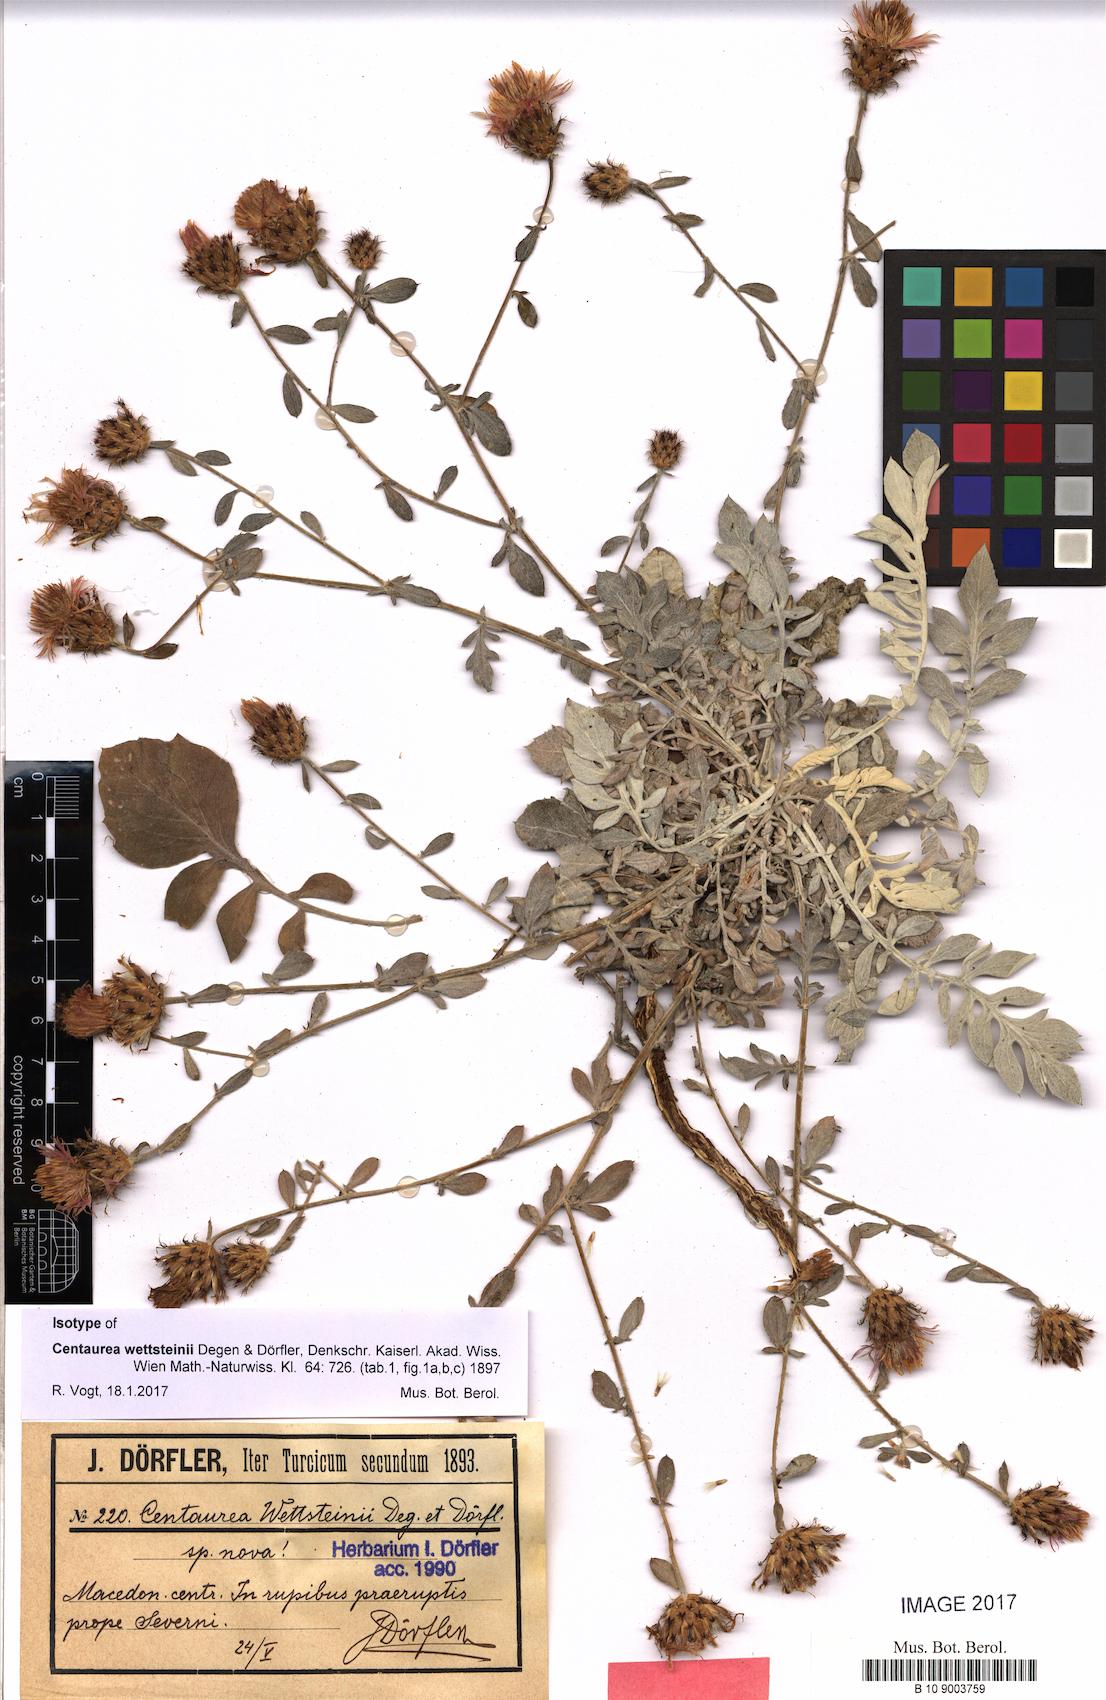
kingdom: Plantae
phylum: Tracheophyta
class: Magnoliopsida
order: Asterales
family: Asteraceae
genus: Centaurea
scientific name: Centaurea wettsteinii
